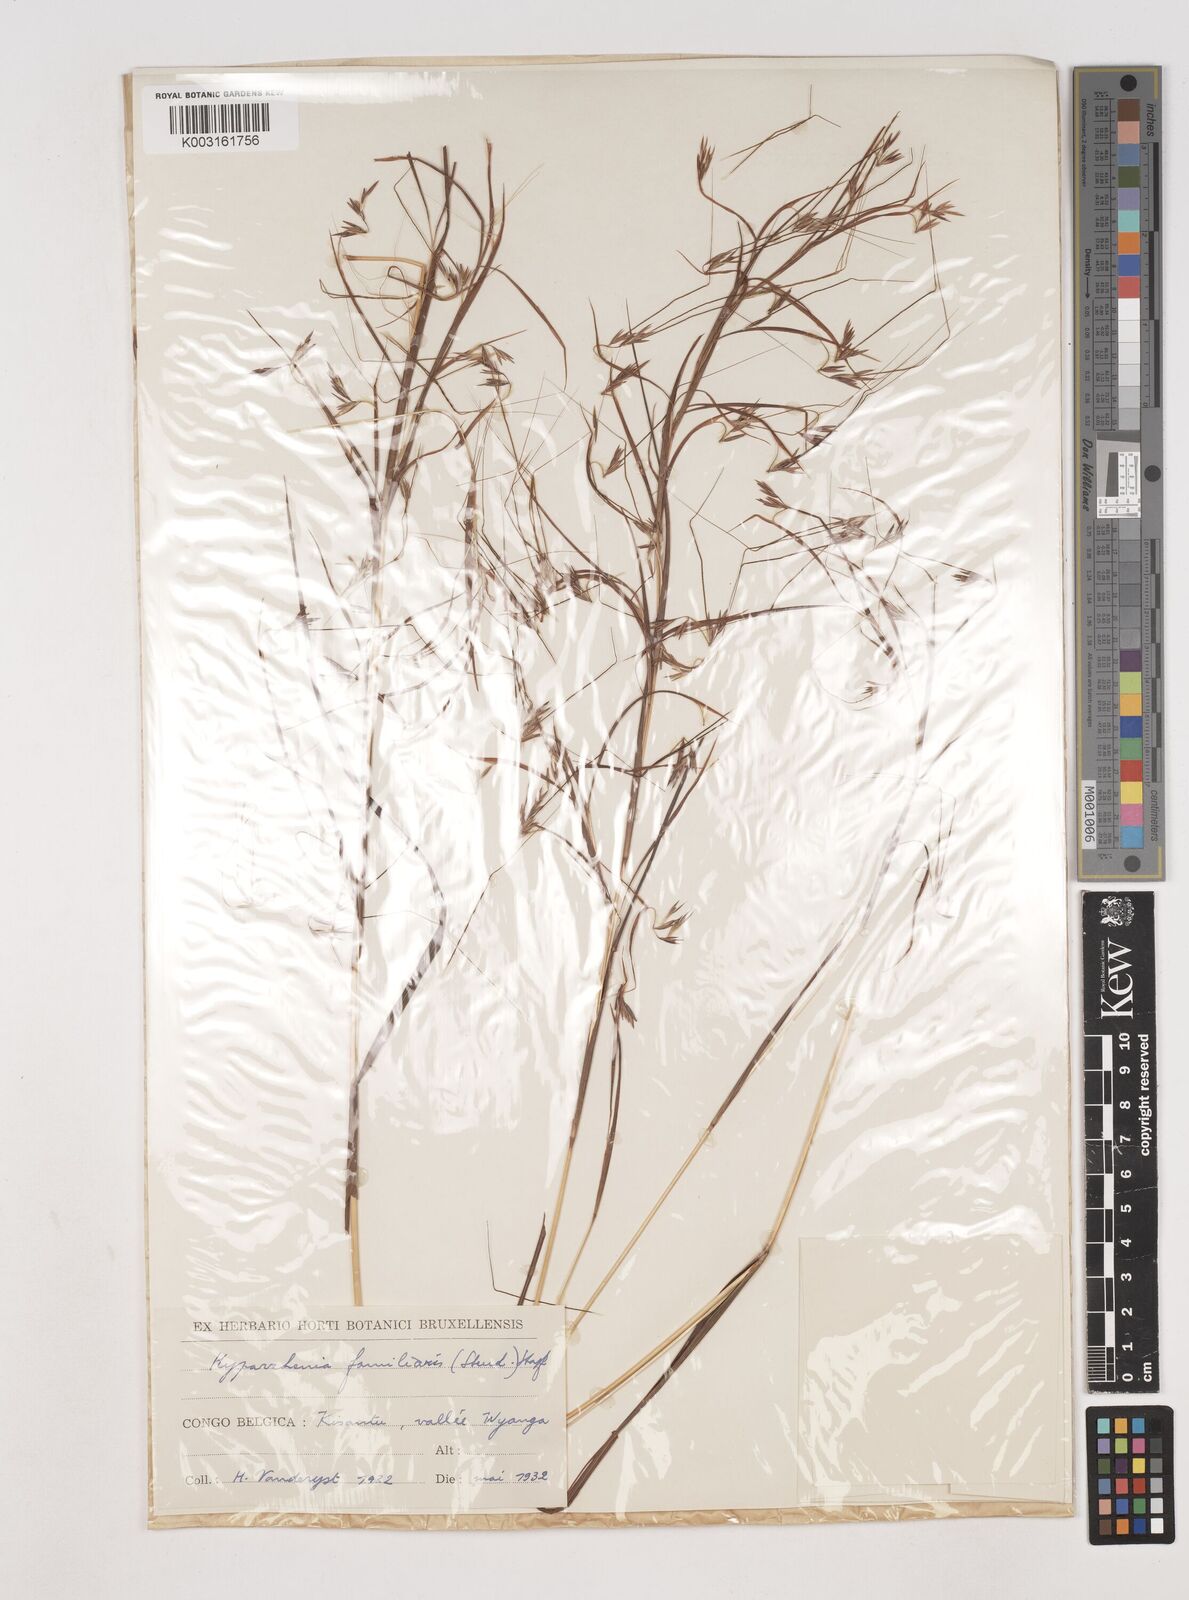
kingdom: Plantae
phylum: Tracheophyta
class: Liliopsida
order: Poales
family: Poaceae
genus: Hyparrhenia
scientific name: Hyparrhenia familiaris
